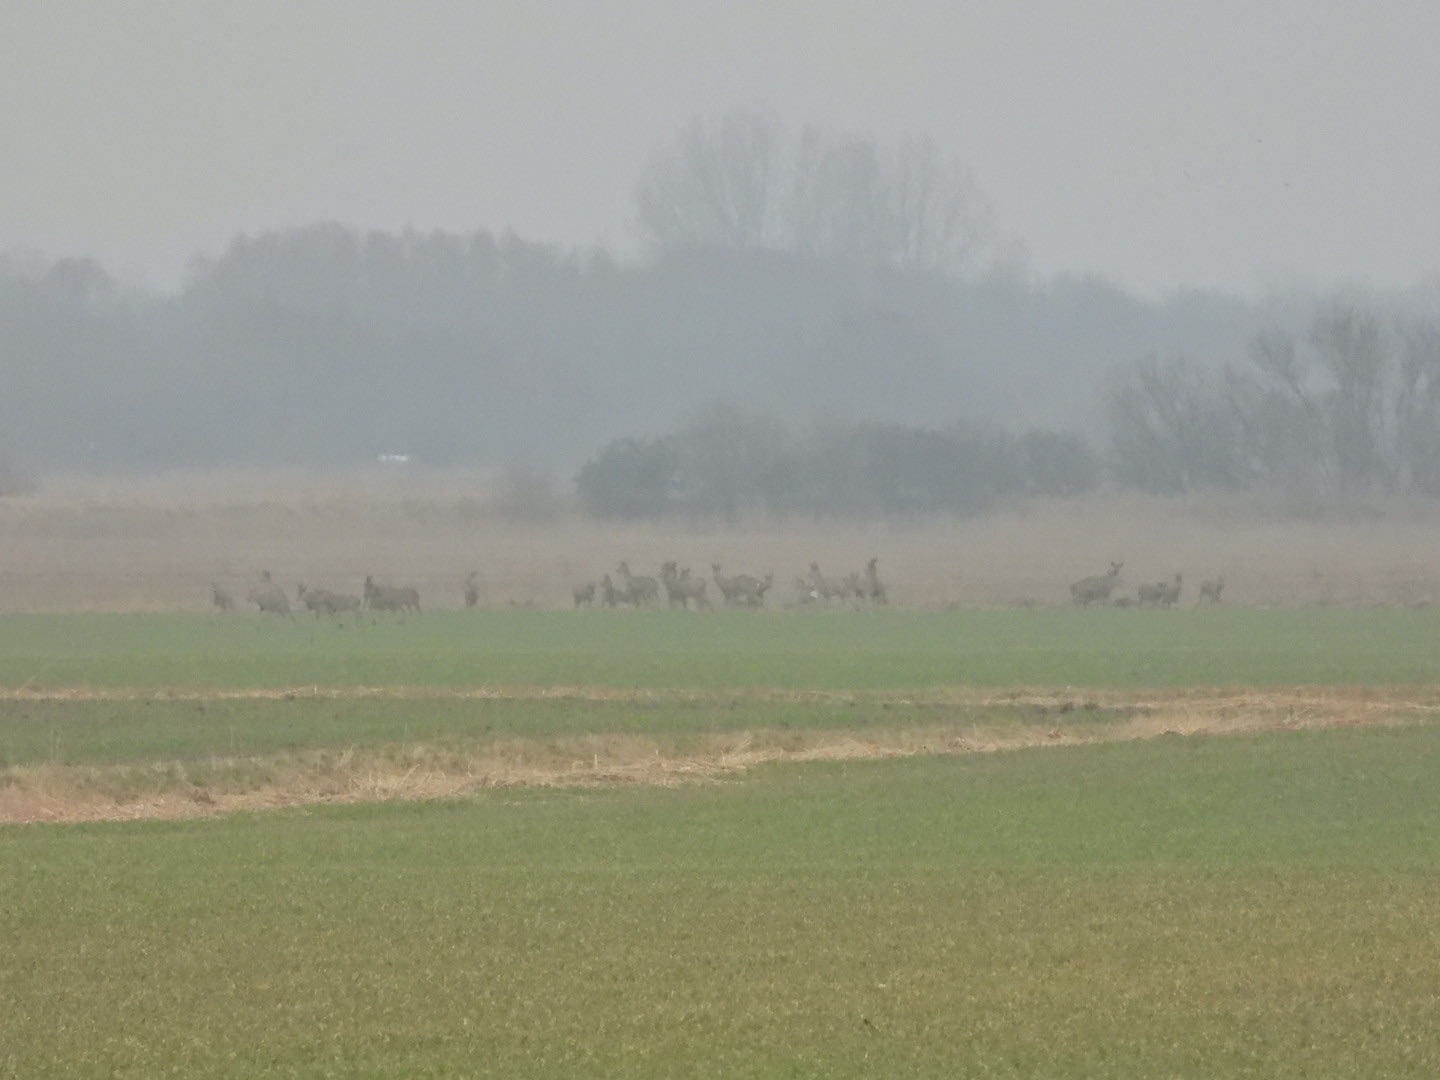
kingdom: Animalia
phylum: Chordata
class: Mammalia
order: Artiodactyla
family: Cervidae
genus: Capreolus
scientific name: Capreolus capreolus
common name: Rådyr
